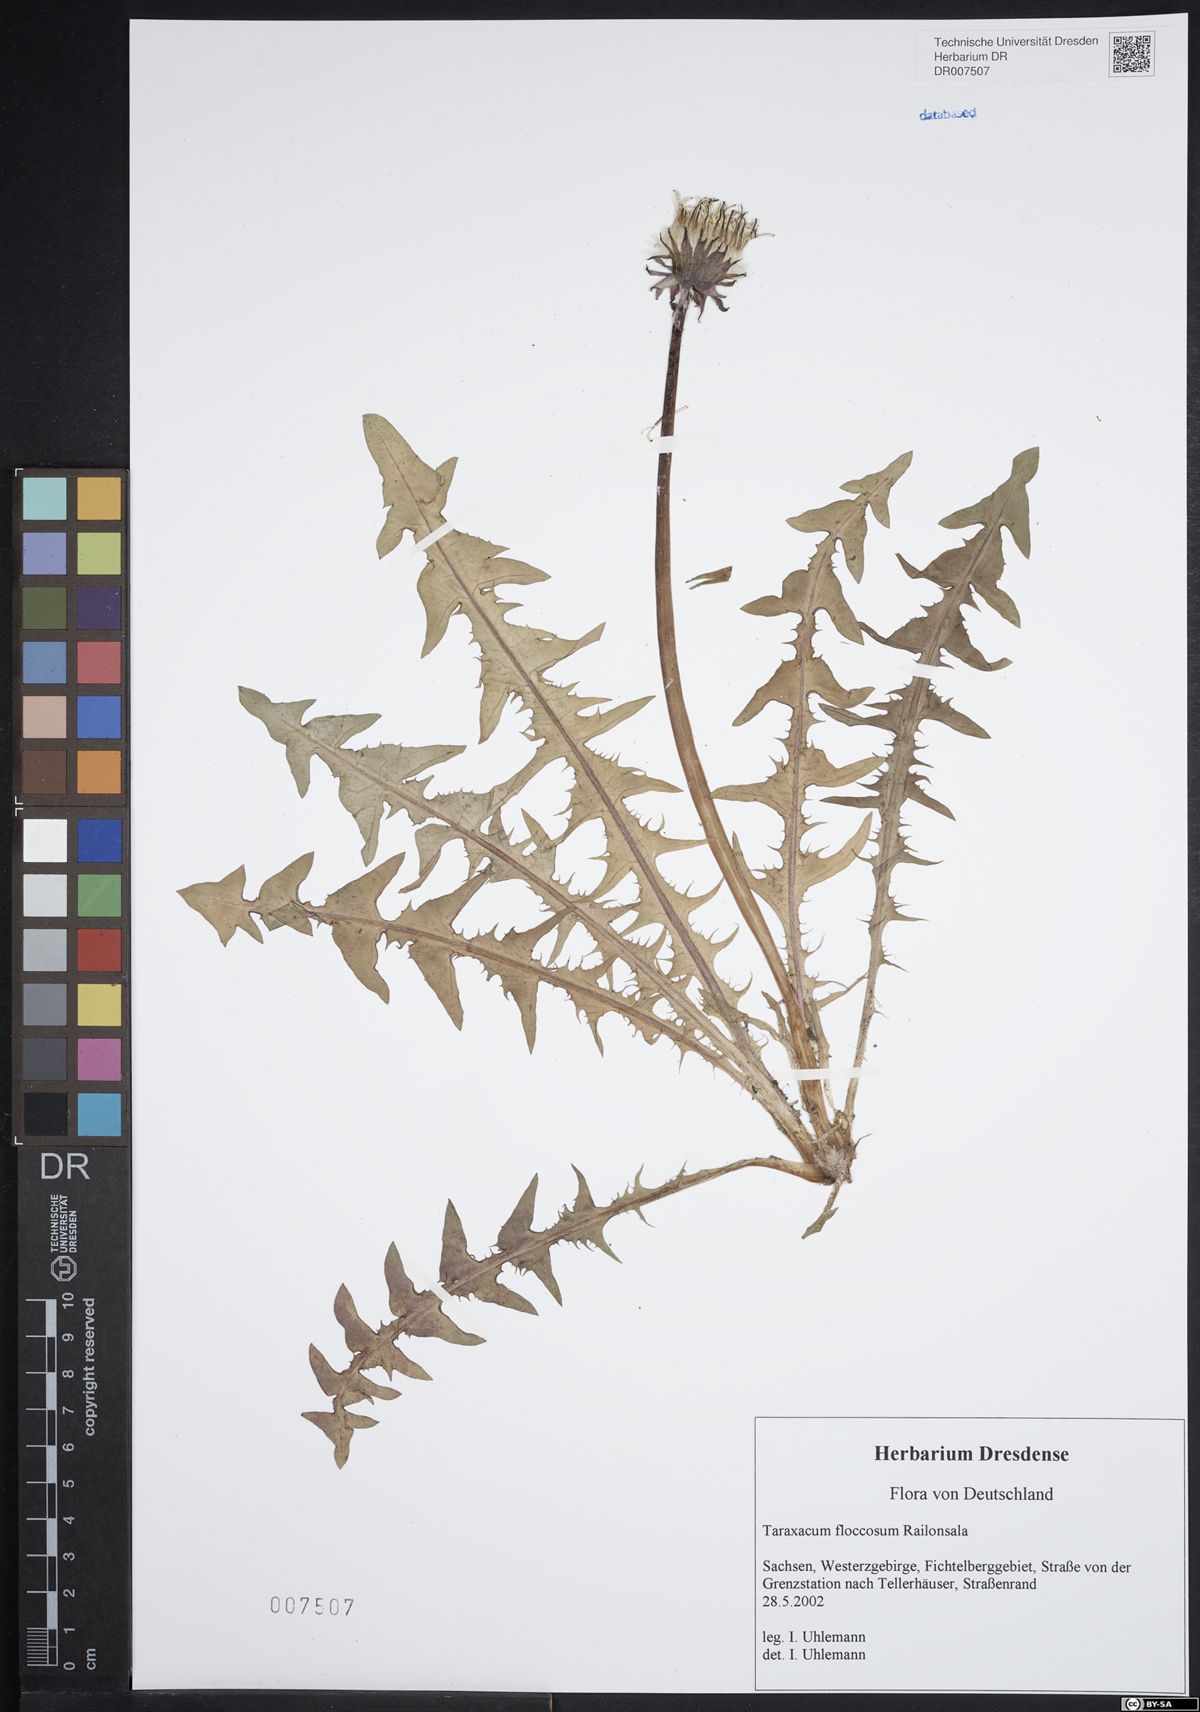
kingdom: Plantae
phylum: Tracheophyta
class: Magnoliopsida
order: Asterales
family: Asteraceae
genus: Taraxacum
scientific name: Taraxacum floccosum
